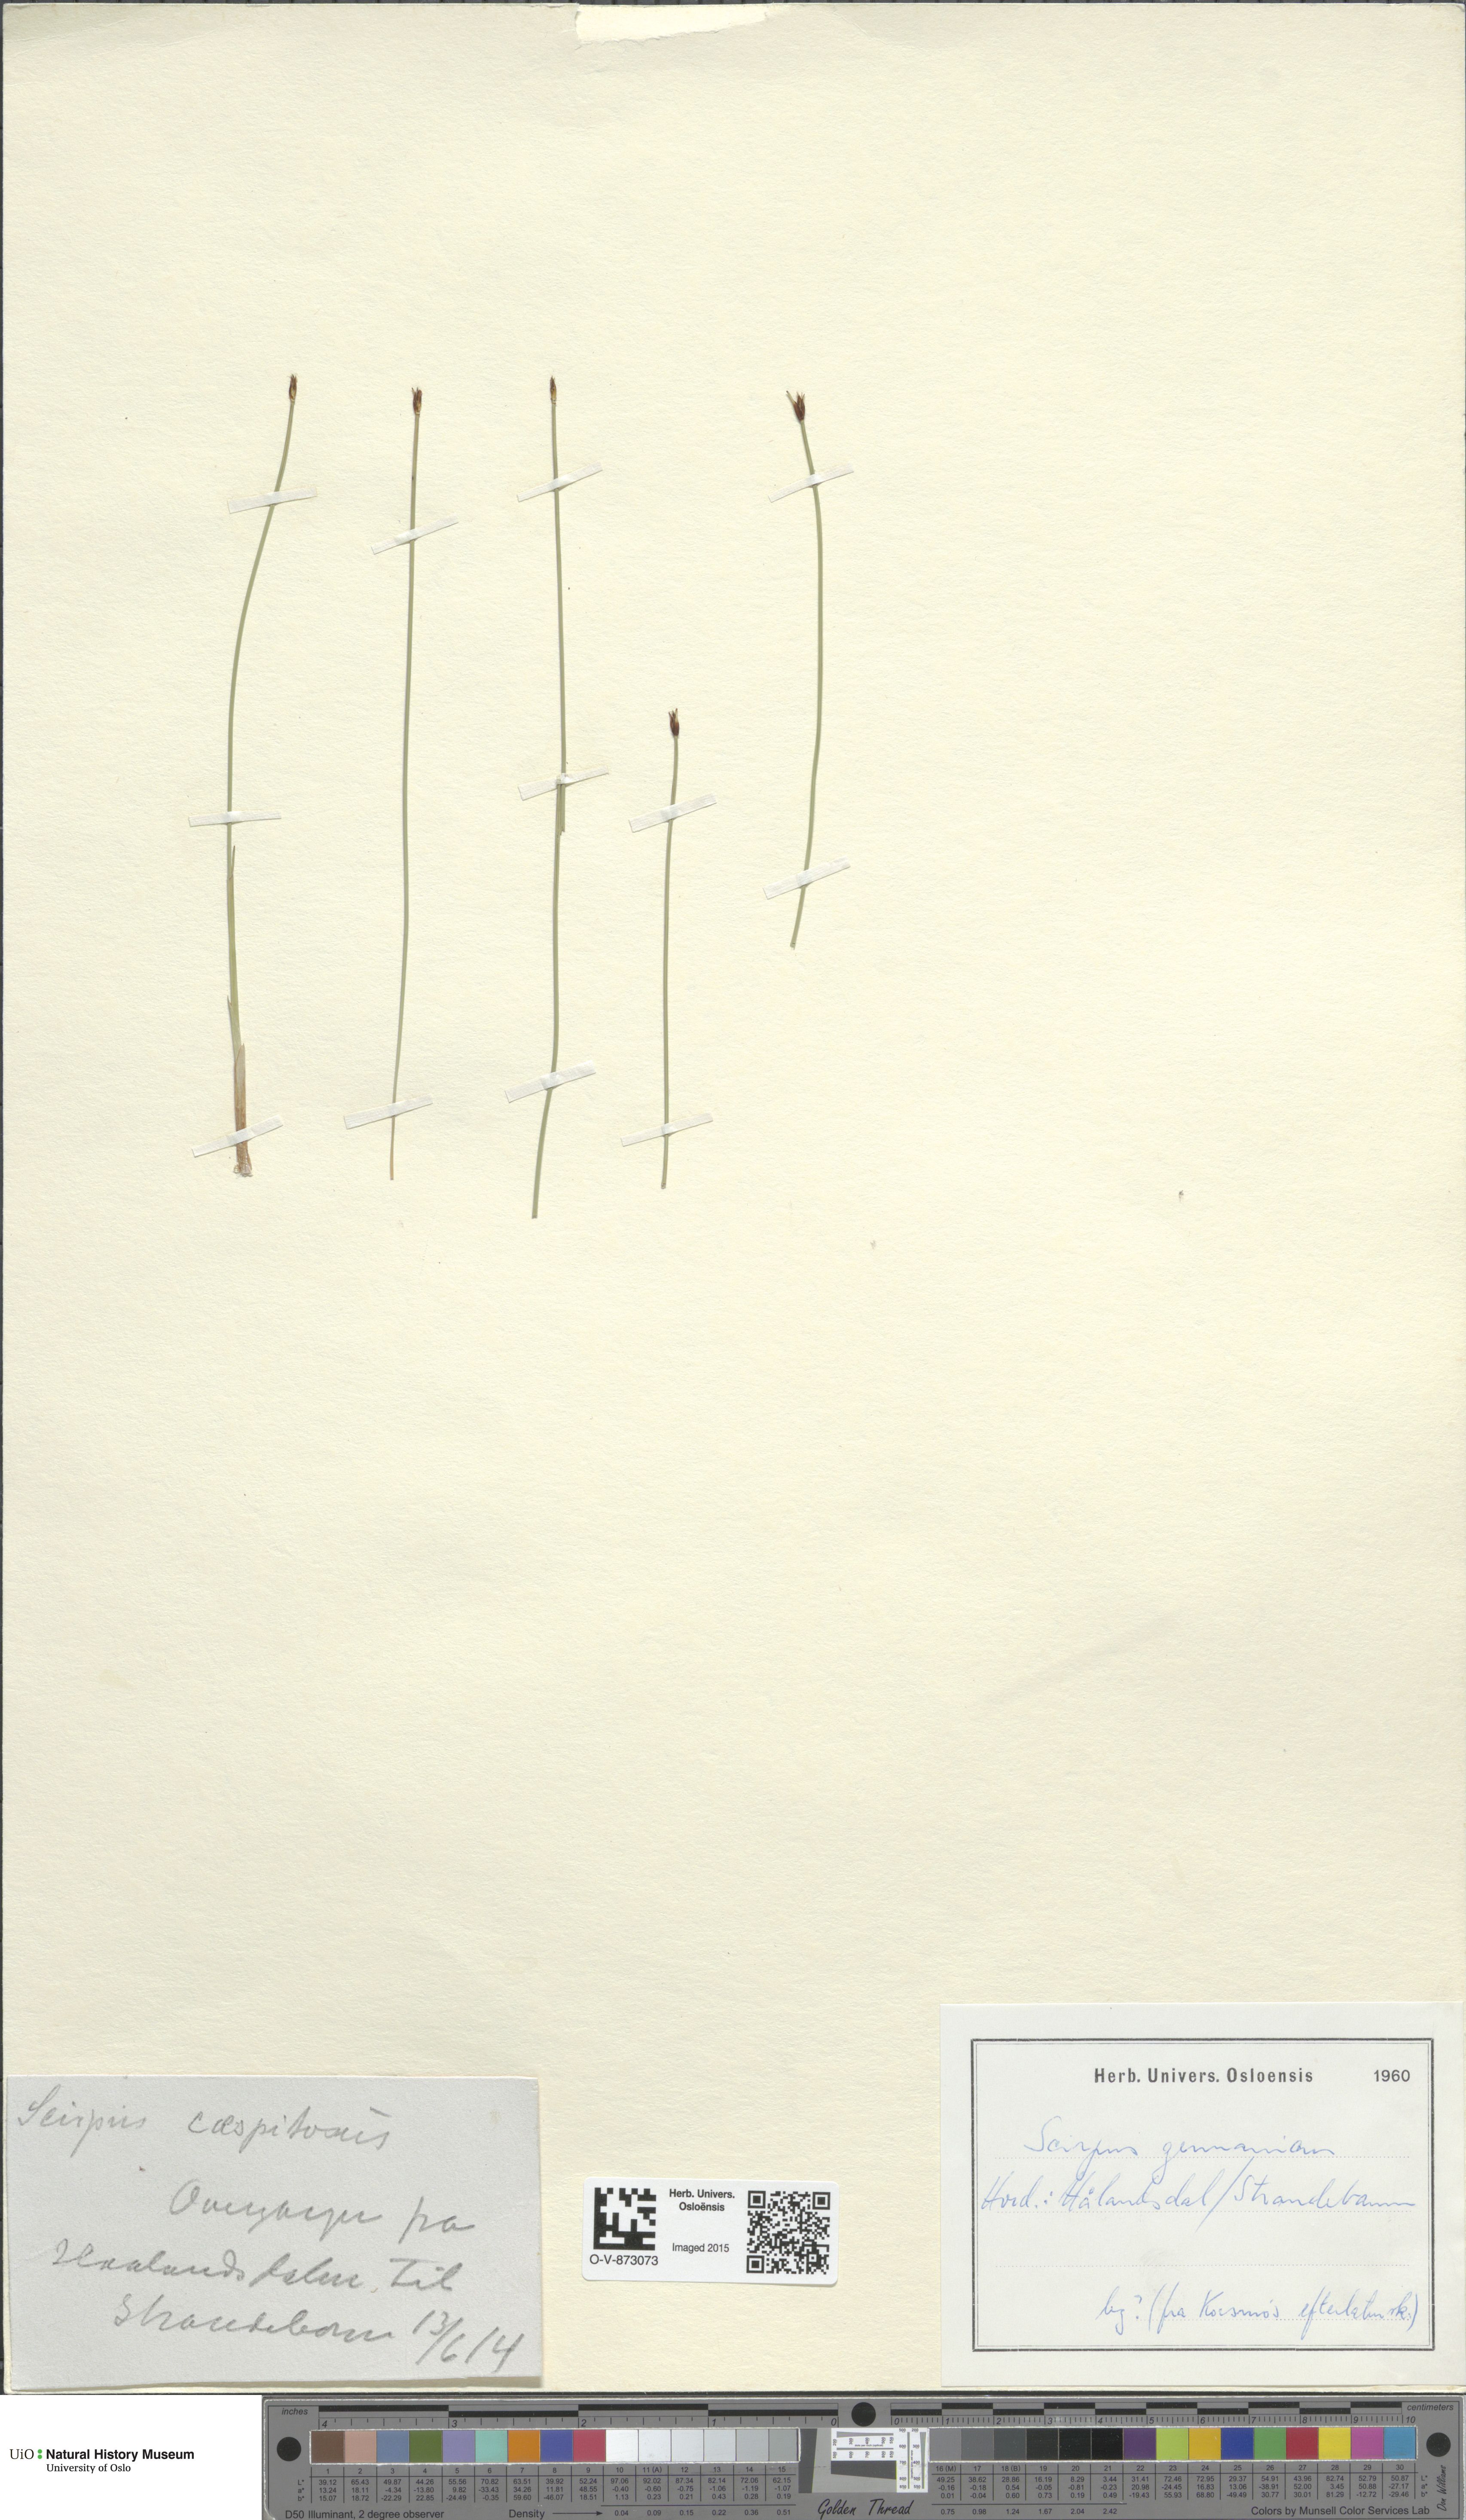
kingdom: Plantae
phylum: Tracheophyta
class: Liliopsida
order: Poales
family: Cyperaceae
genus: Trichophorum
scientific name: Trichophorum cespitosum
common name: Cespitose bulrush
